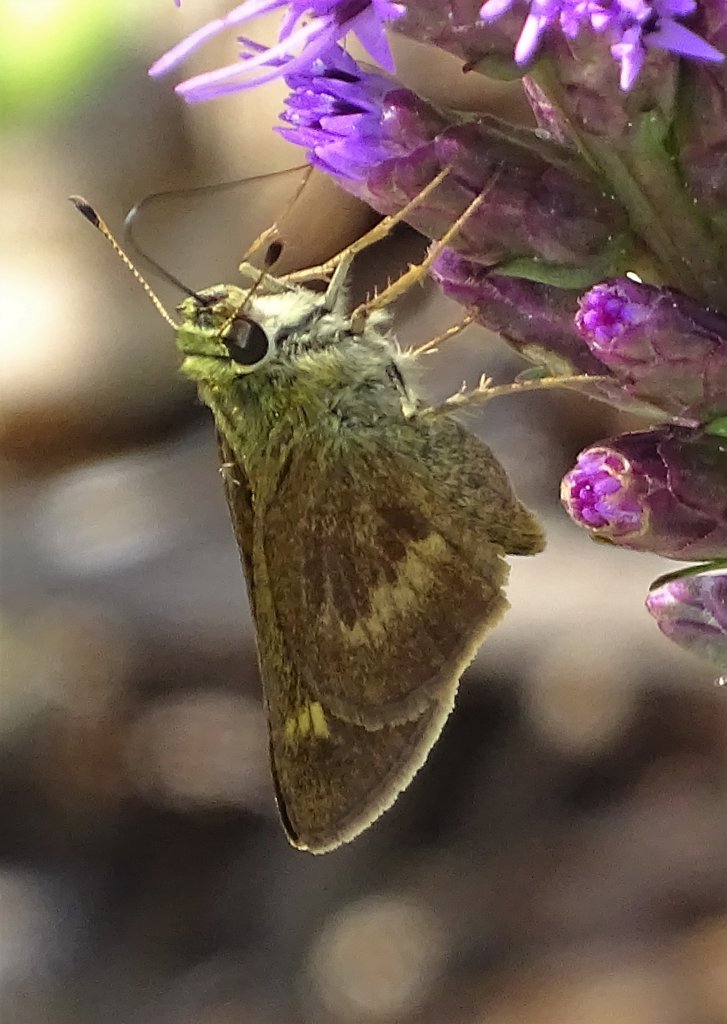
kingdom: Animalia
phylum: Arthropoda
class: Insecta
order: Lepidoptera
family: Hesperiidae
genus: Polites
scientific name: Polites egeremet
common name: Northern Broken-Dash
